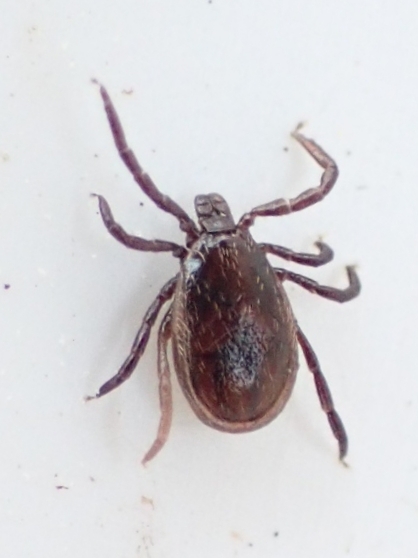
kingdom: Animalia
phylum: Arthropoda
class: Arachnida
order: Ixodida
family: Ixodidae
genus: Ixodes
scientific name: Ixodes ricinus
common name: Skovflåt
